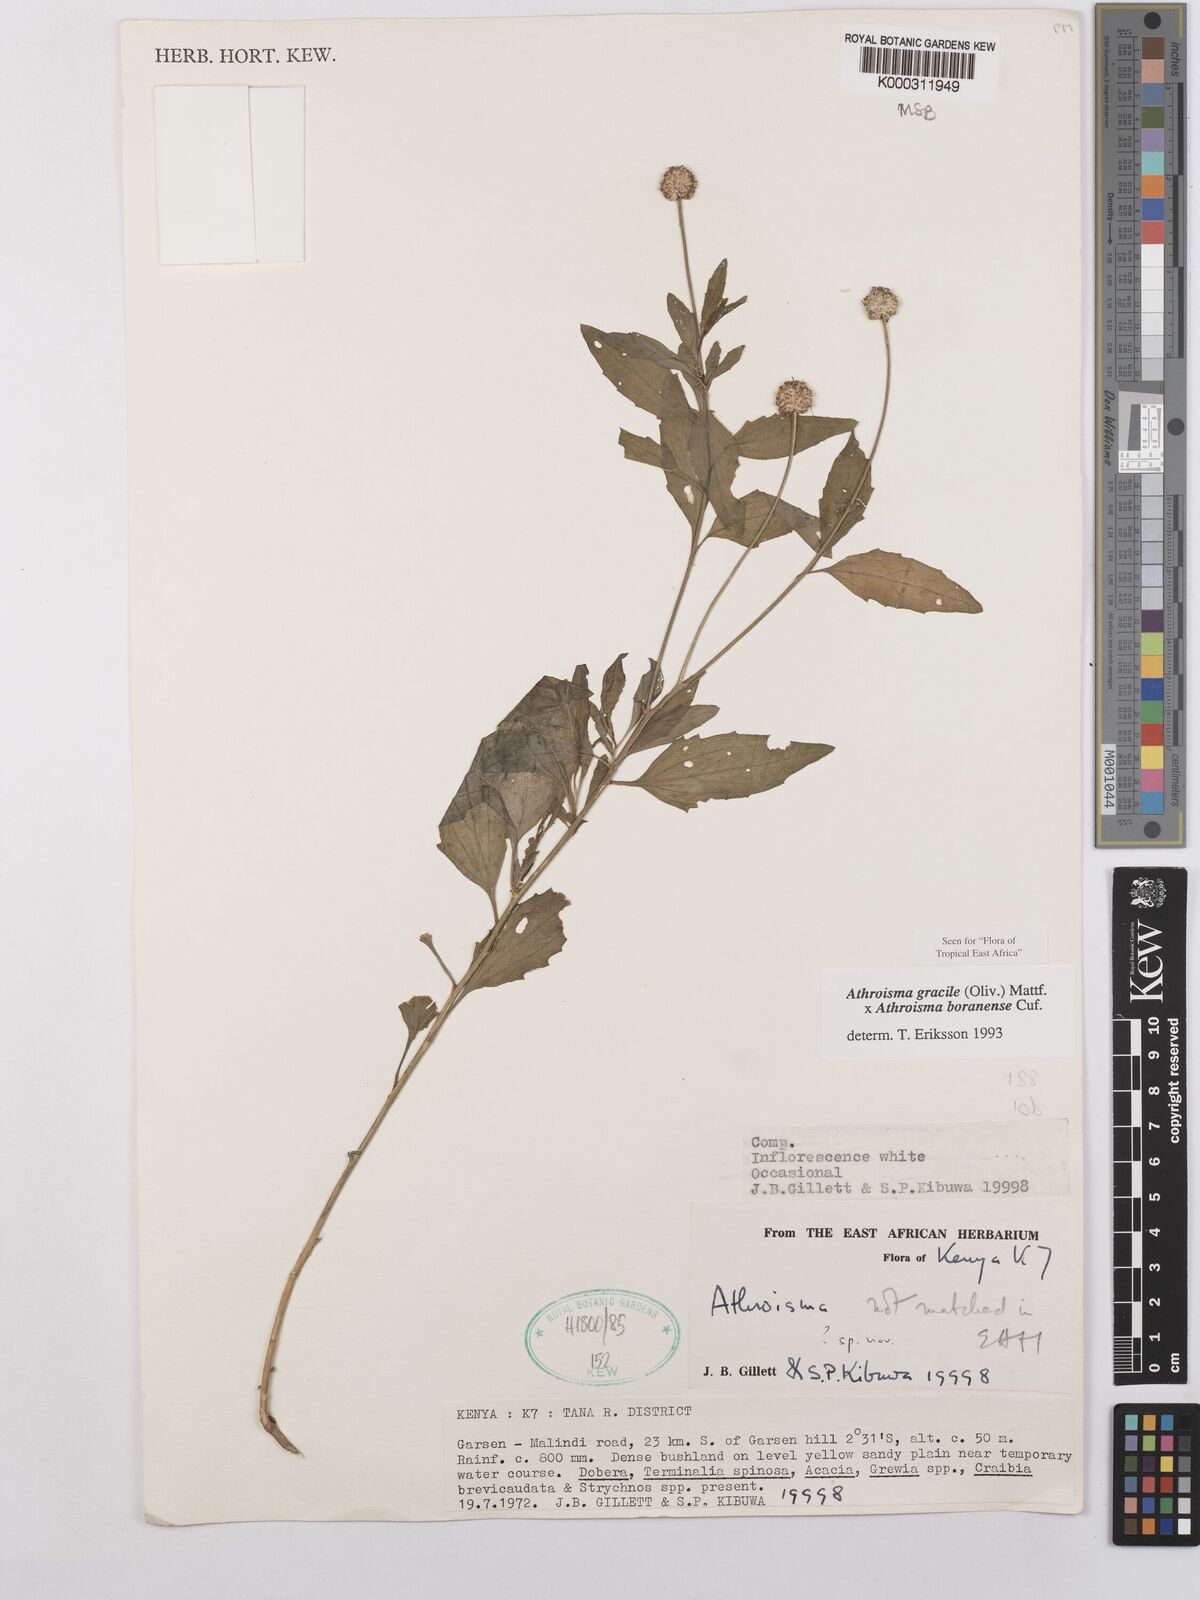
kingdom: Plantae
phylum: Tracheophyta
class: Magnoliopsida
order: Asterales
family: Asteraceae
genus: Athroisma
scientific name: Athroisma
